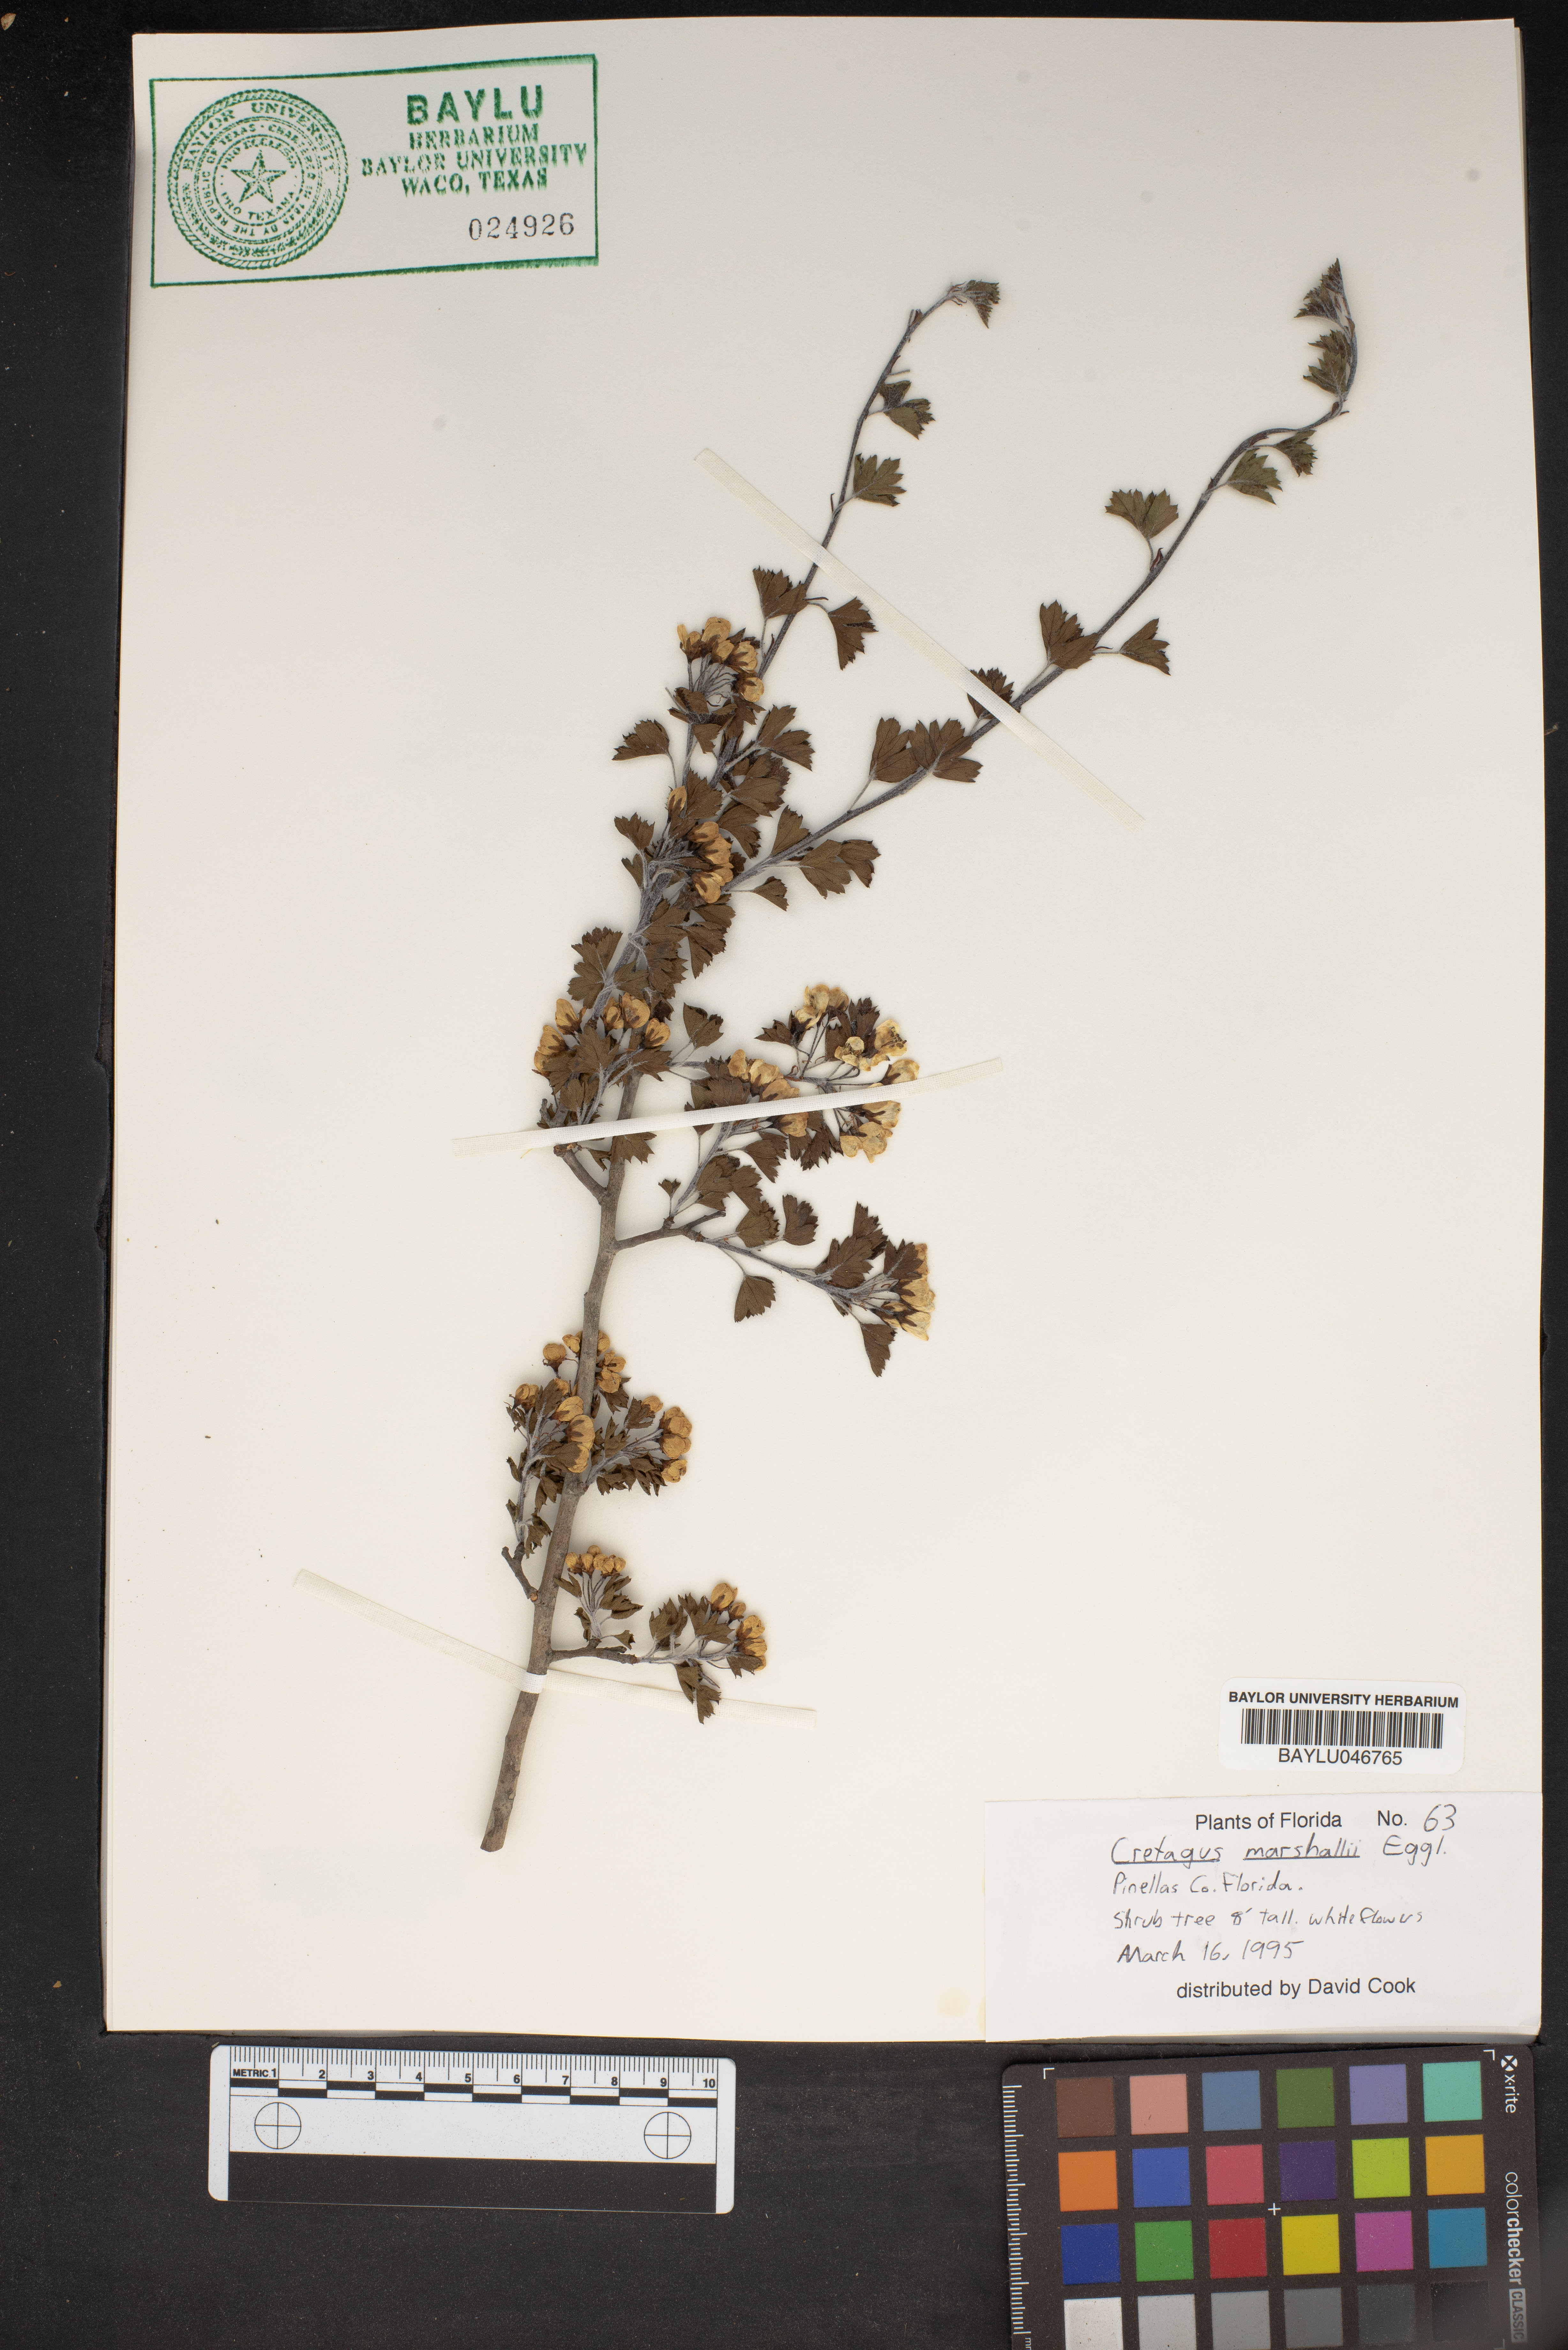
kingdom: Plantae
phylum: Tracheophyta
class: Magnoliopsida
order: Rosales
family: Rosaceae
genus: Crataegus
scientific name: Crataegus marshallii
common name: Parsley-hawthorn
